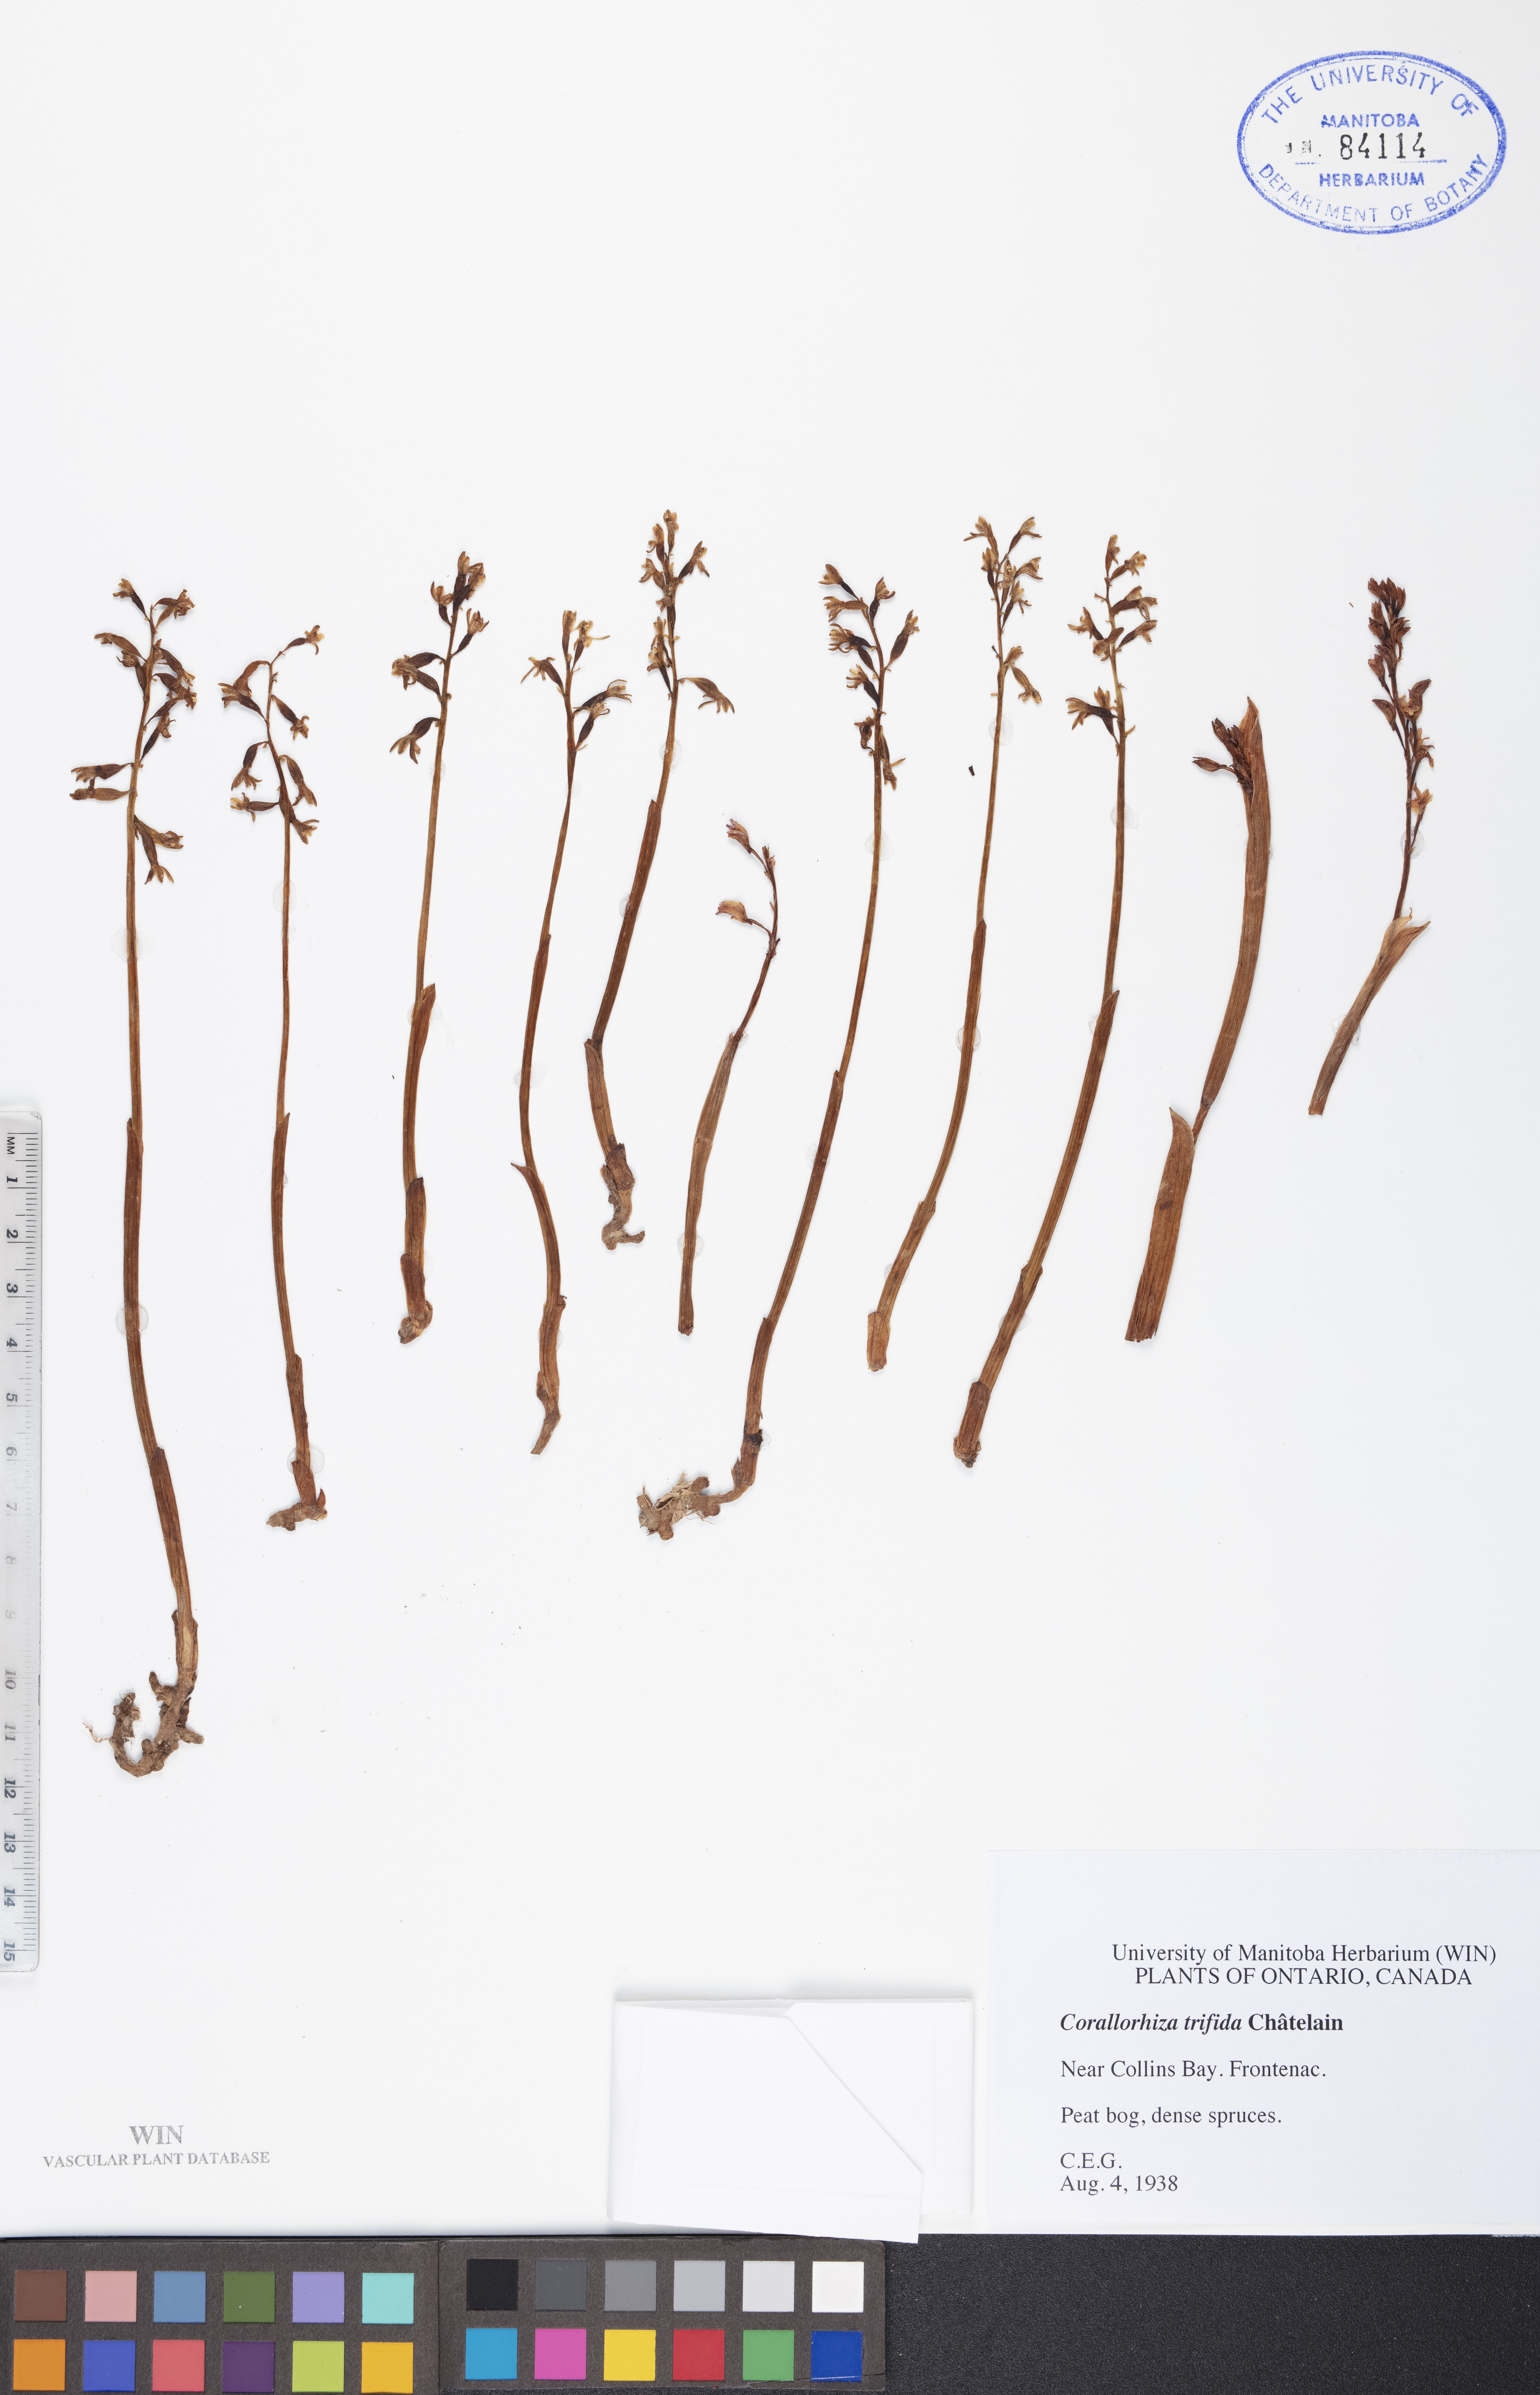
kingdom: Plantae
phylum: Tracheophyta
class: Liliopsida
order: Asparagales
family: Orchidaceae
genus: Corallorhiza
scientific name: Corallorhiza trifida
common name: Yellow coralroot
